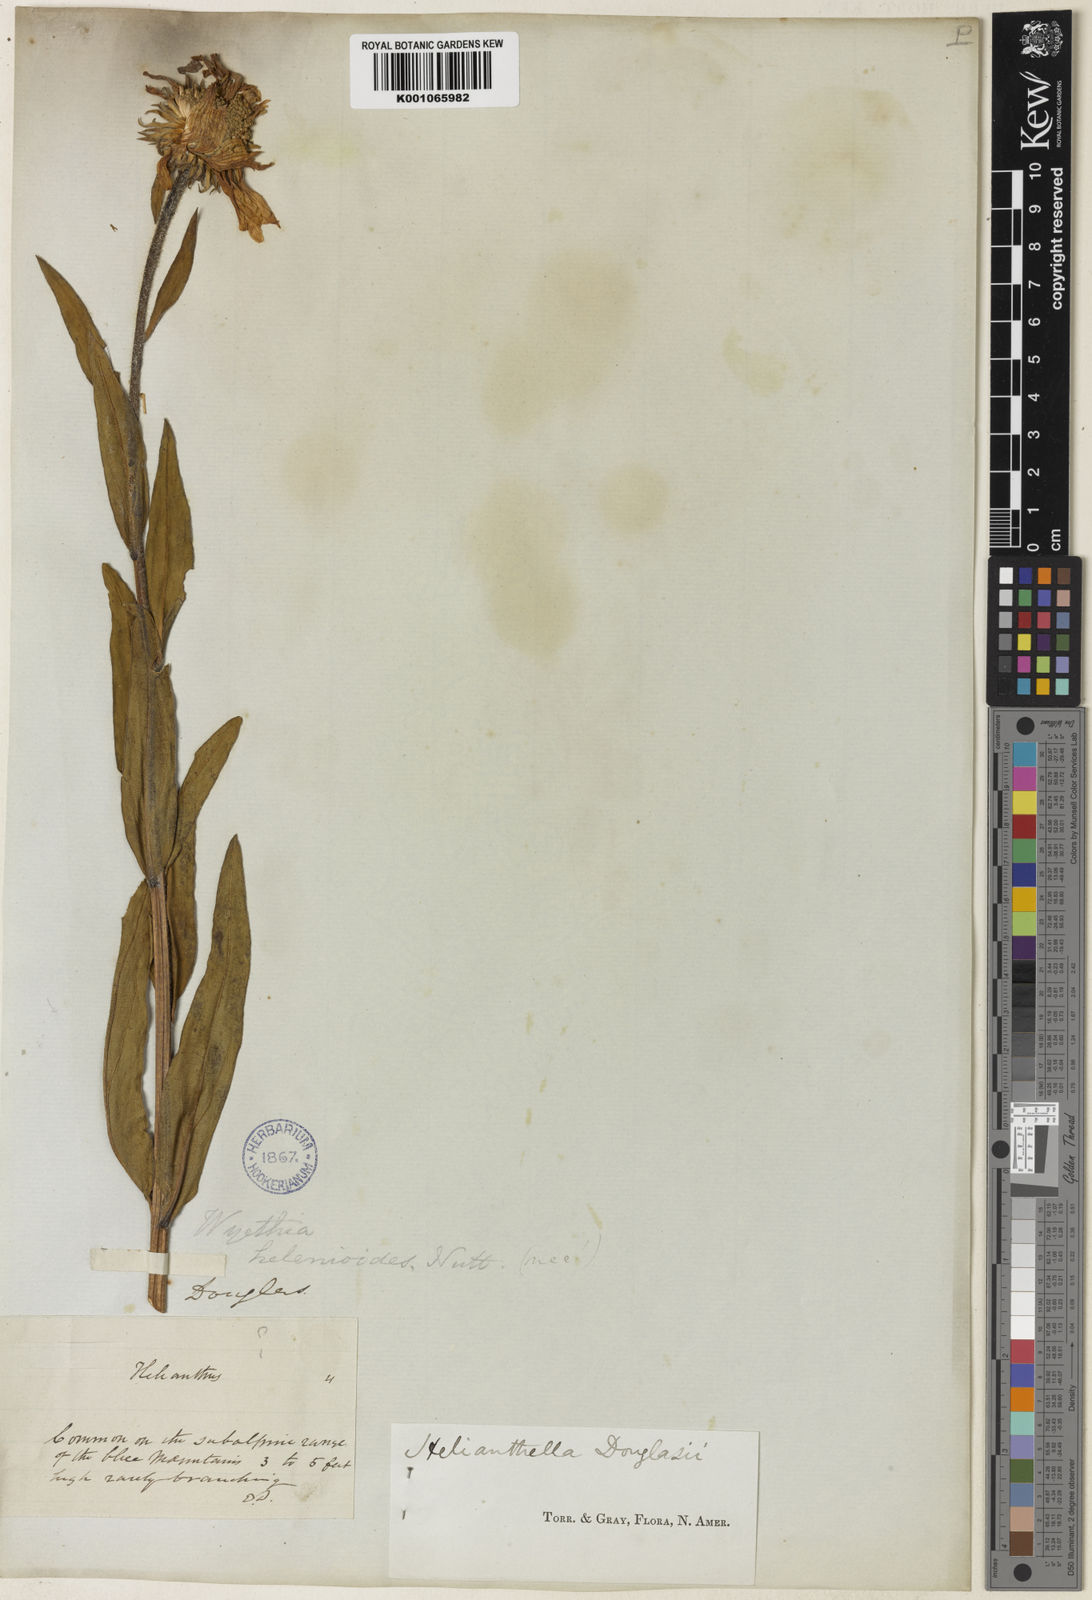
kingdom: Plantae
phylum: Tracheophyta
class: Magnoliopsida
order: Asterales
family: Asteraceae
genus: Helianthella
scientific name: Helianthella uniflora
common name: Rocky mountain dwarf sunflower
